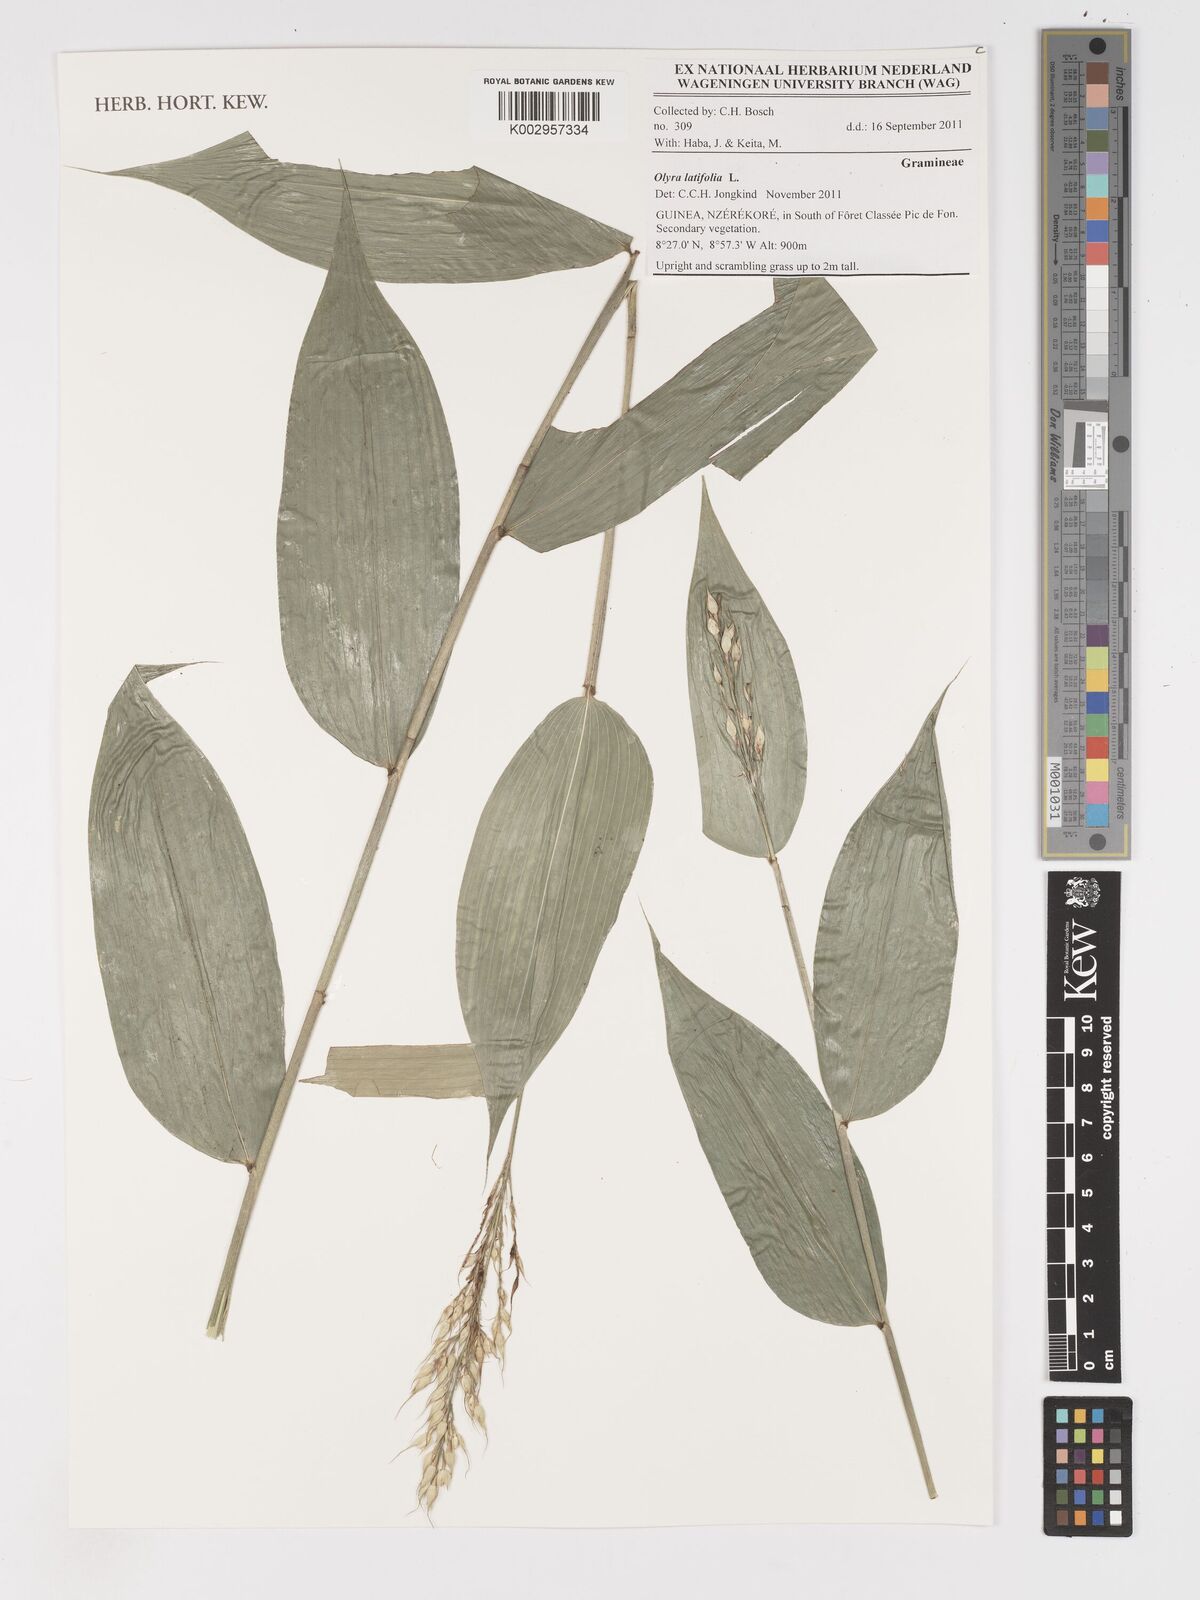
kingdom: Plantae
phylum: Tracheophyta
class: Liliopsida
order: Poales
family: Poaceae
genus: Olyra
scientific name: Olyra latifolia
